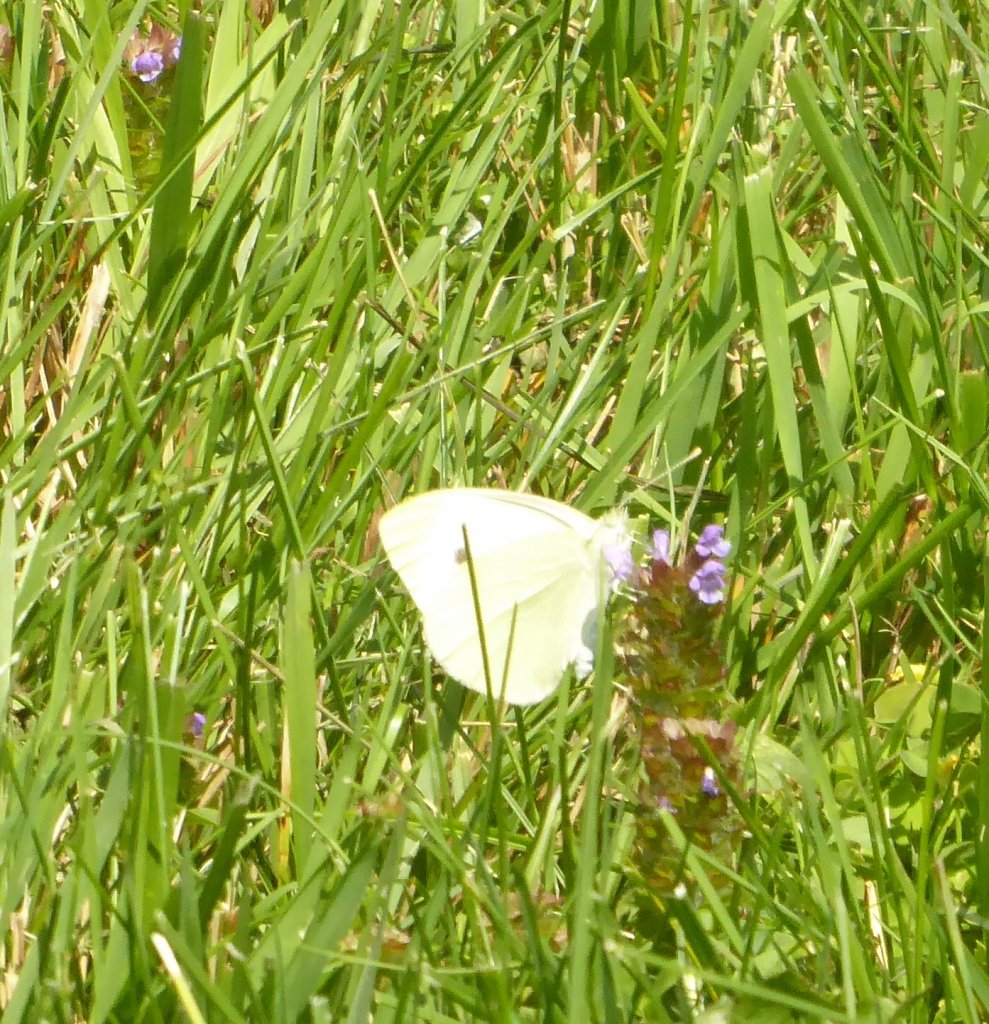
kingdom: Animalia
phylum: Arthropoda
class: Insecta
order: Lepidoptera
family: Pieridae
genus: Pieris
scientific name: Pieris rapae
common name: Cabbage White
